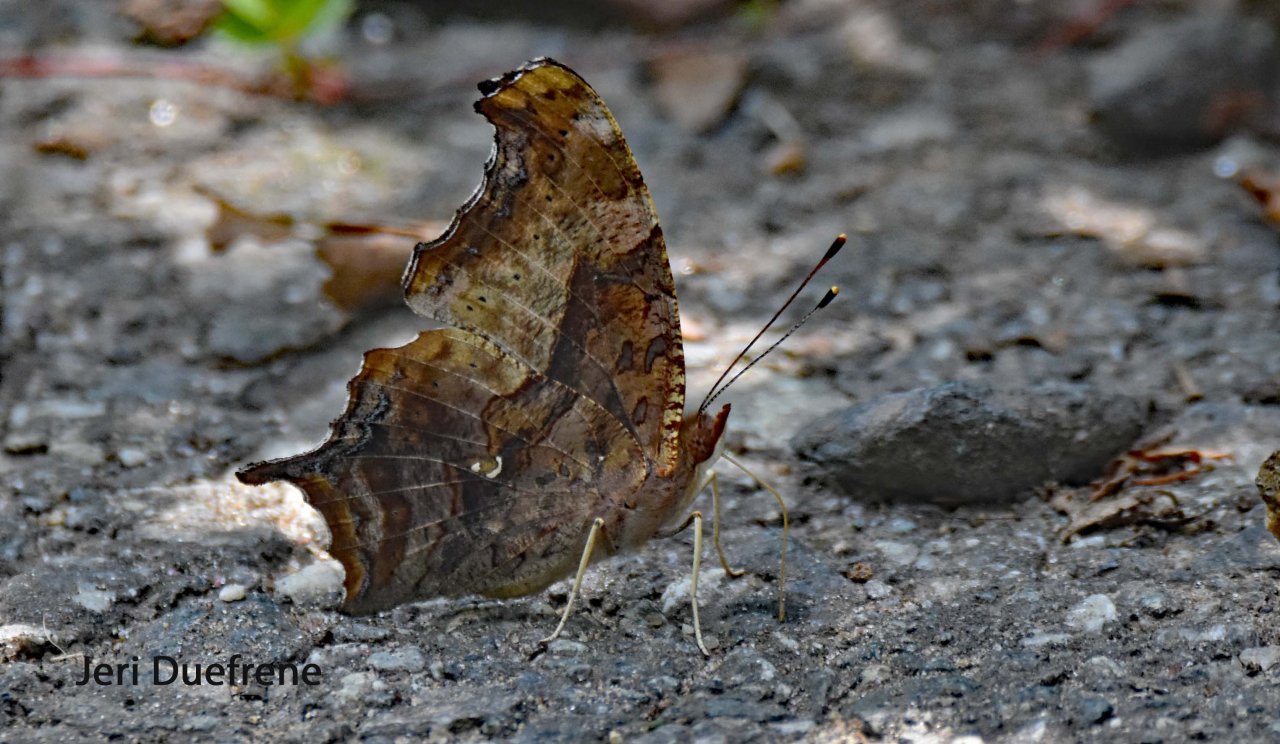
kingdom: Animalia
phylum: Arthropoda
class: Insecta
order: Lepidoptera
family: Nymphalidae
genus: Polygonia
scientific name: Polygonia interrogationis
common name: Question Mark
